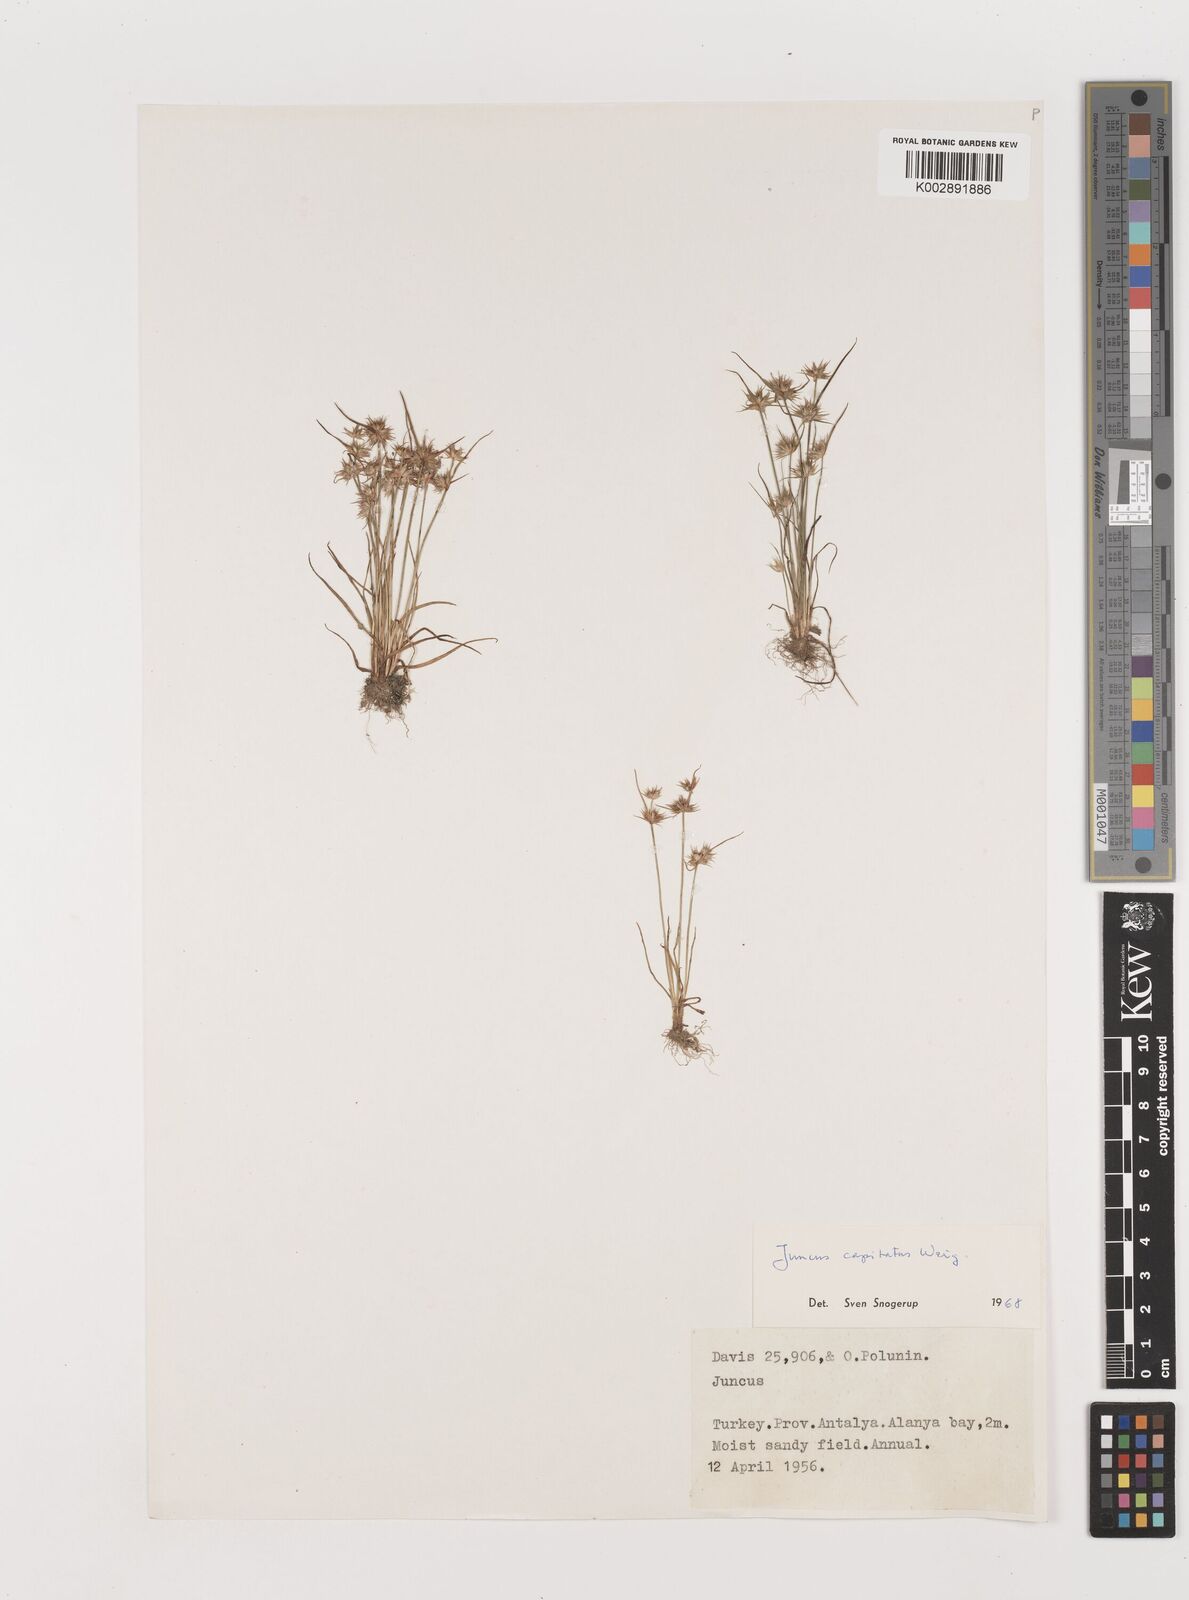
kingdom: Plantae
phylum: Tracheophyta
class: Liliopsida
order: Poales
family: Juncaceae
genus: Juncus
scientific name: Juncus capitatus
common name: Dwarf rush
